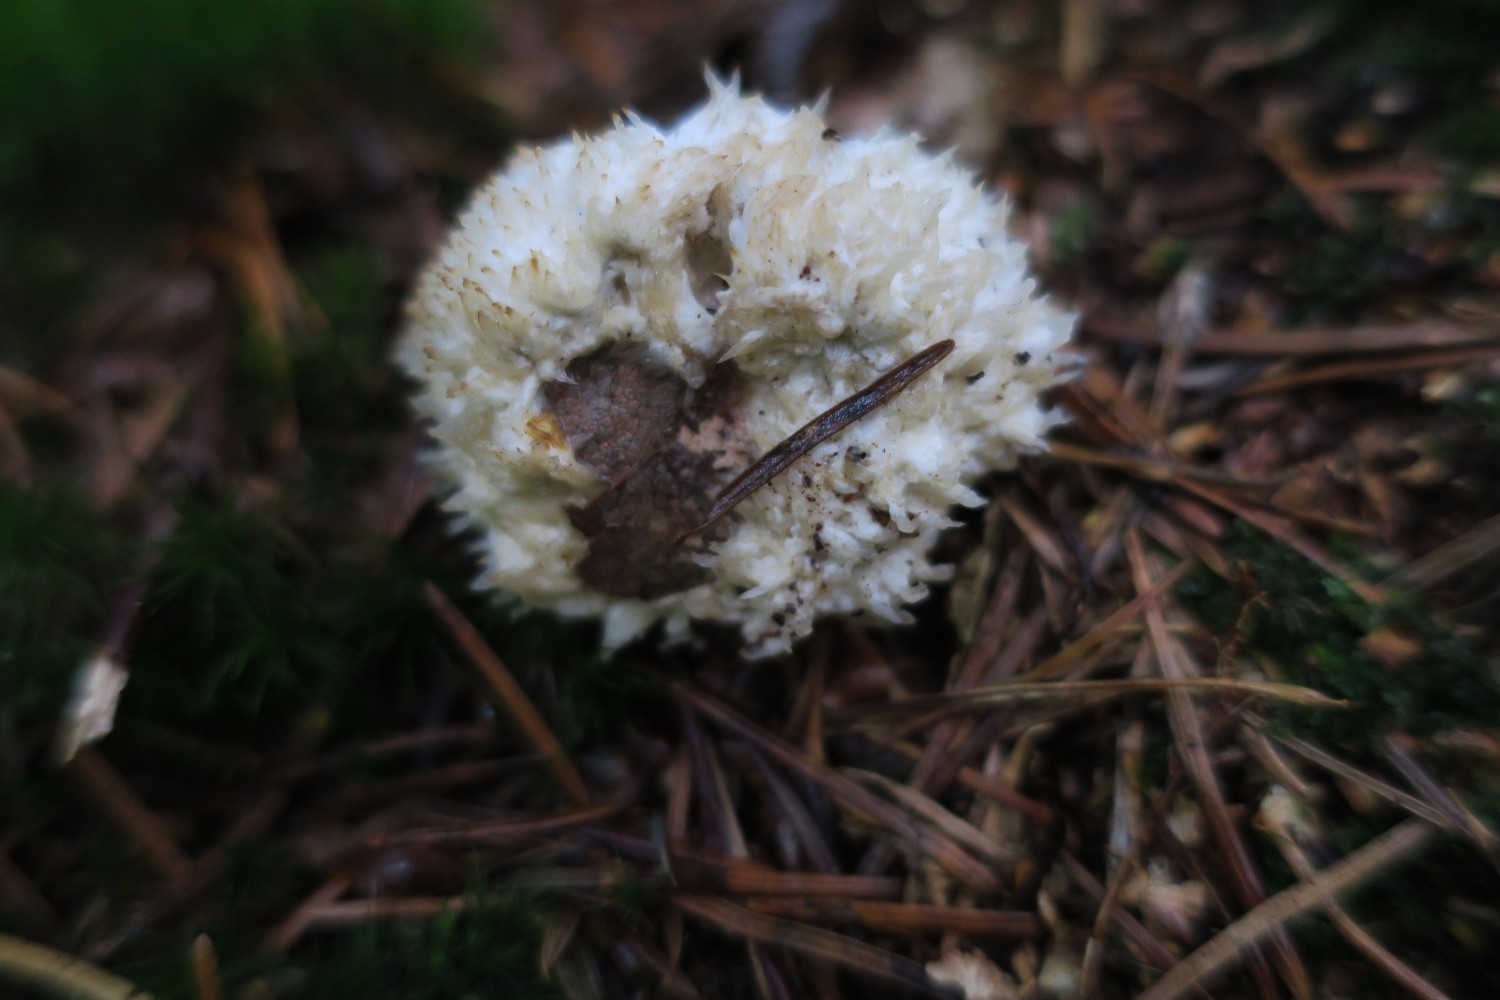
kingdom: Fungi
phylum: Basidiomycota
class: Agaricomycetes
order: Polyporales
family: Dacryobolaceae
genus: Postia
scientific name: Postia ptychogaster
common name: støvende kødporesvamp
